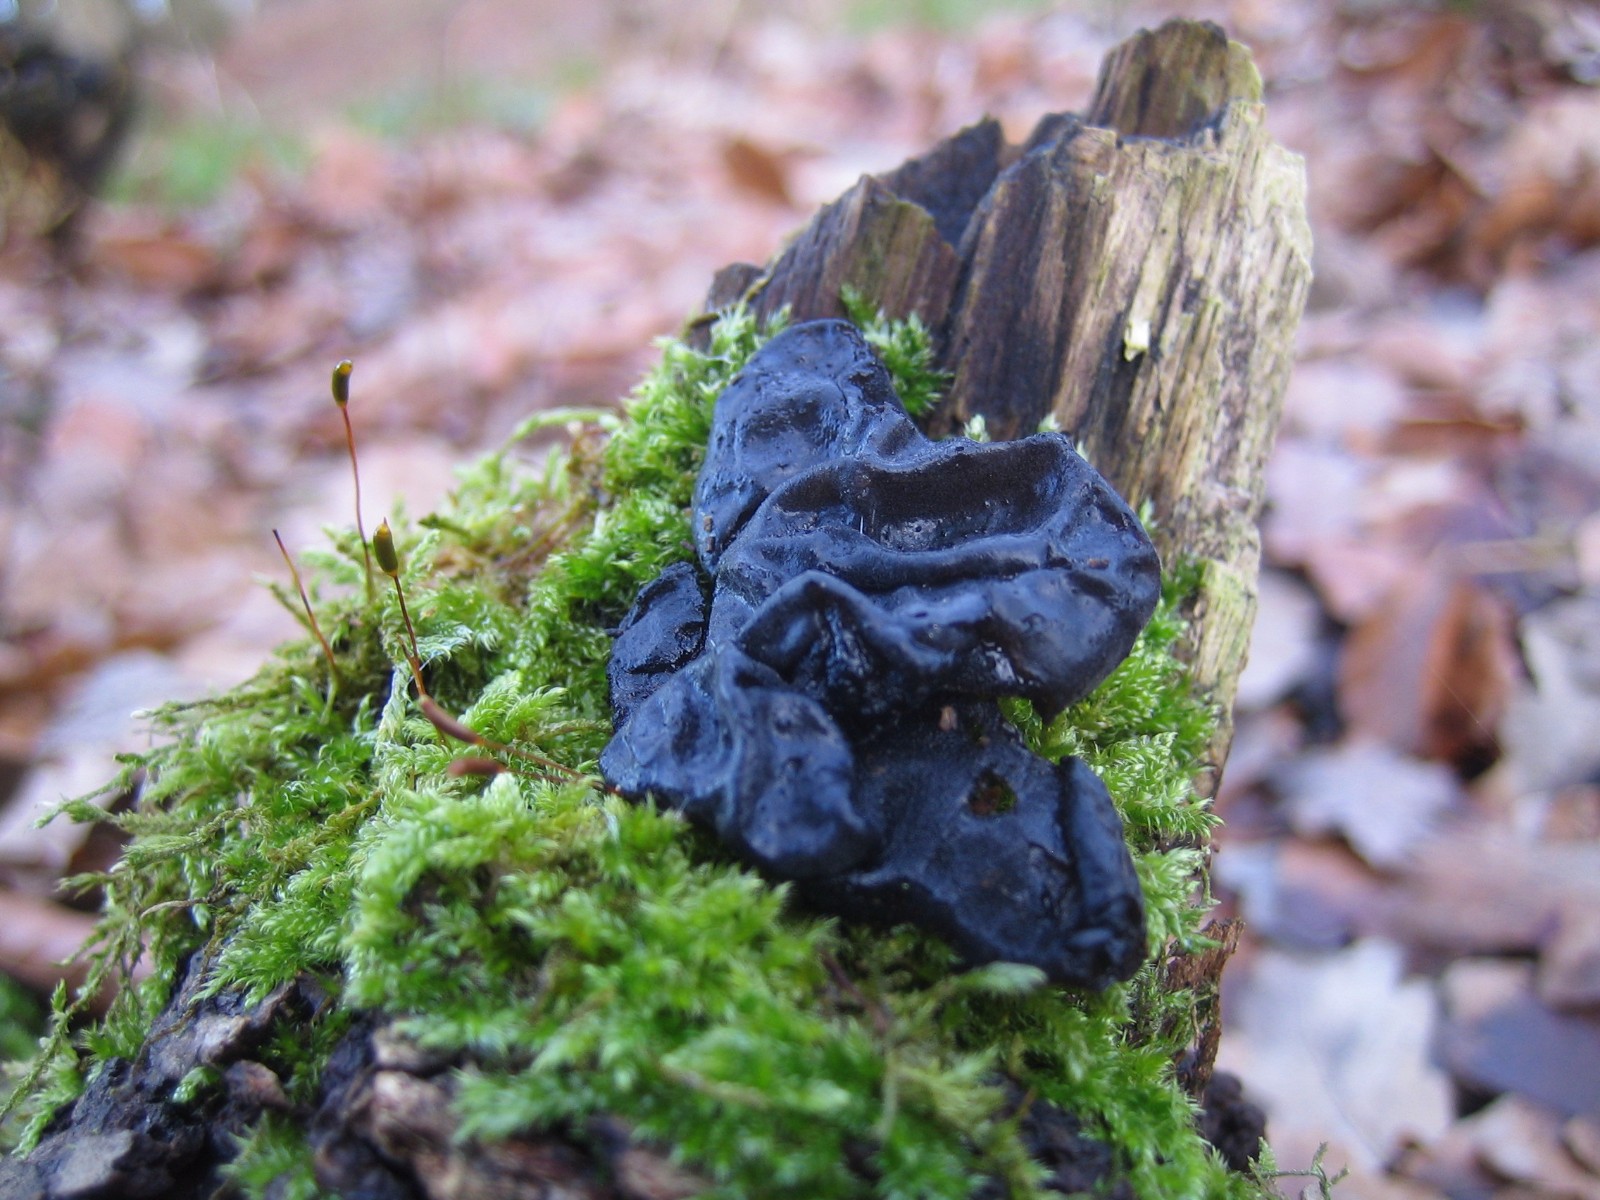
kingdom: Fungi
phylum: Basidiomycota
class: Agaricomycetes
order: Auriculariales
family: Auriculariaceae
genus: Exidia
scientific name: Exidia glandulosa
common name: ege-bævretop
